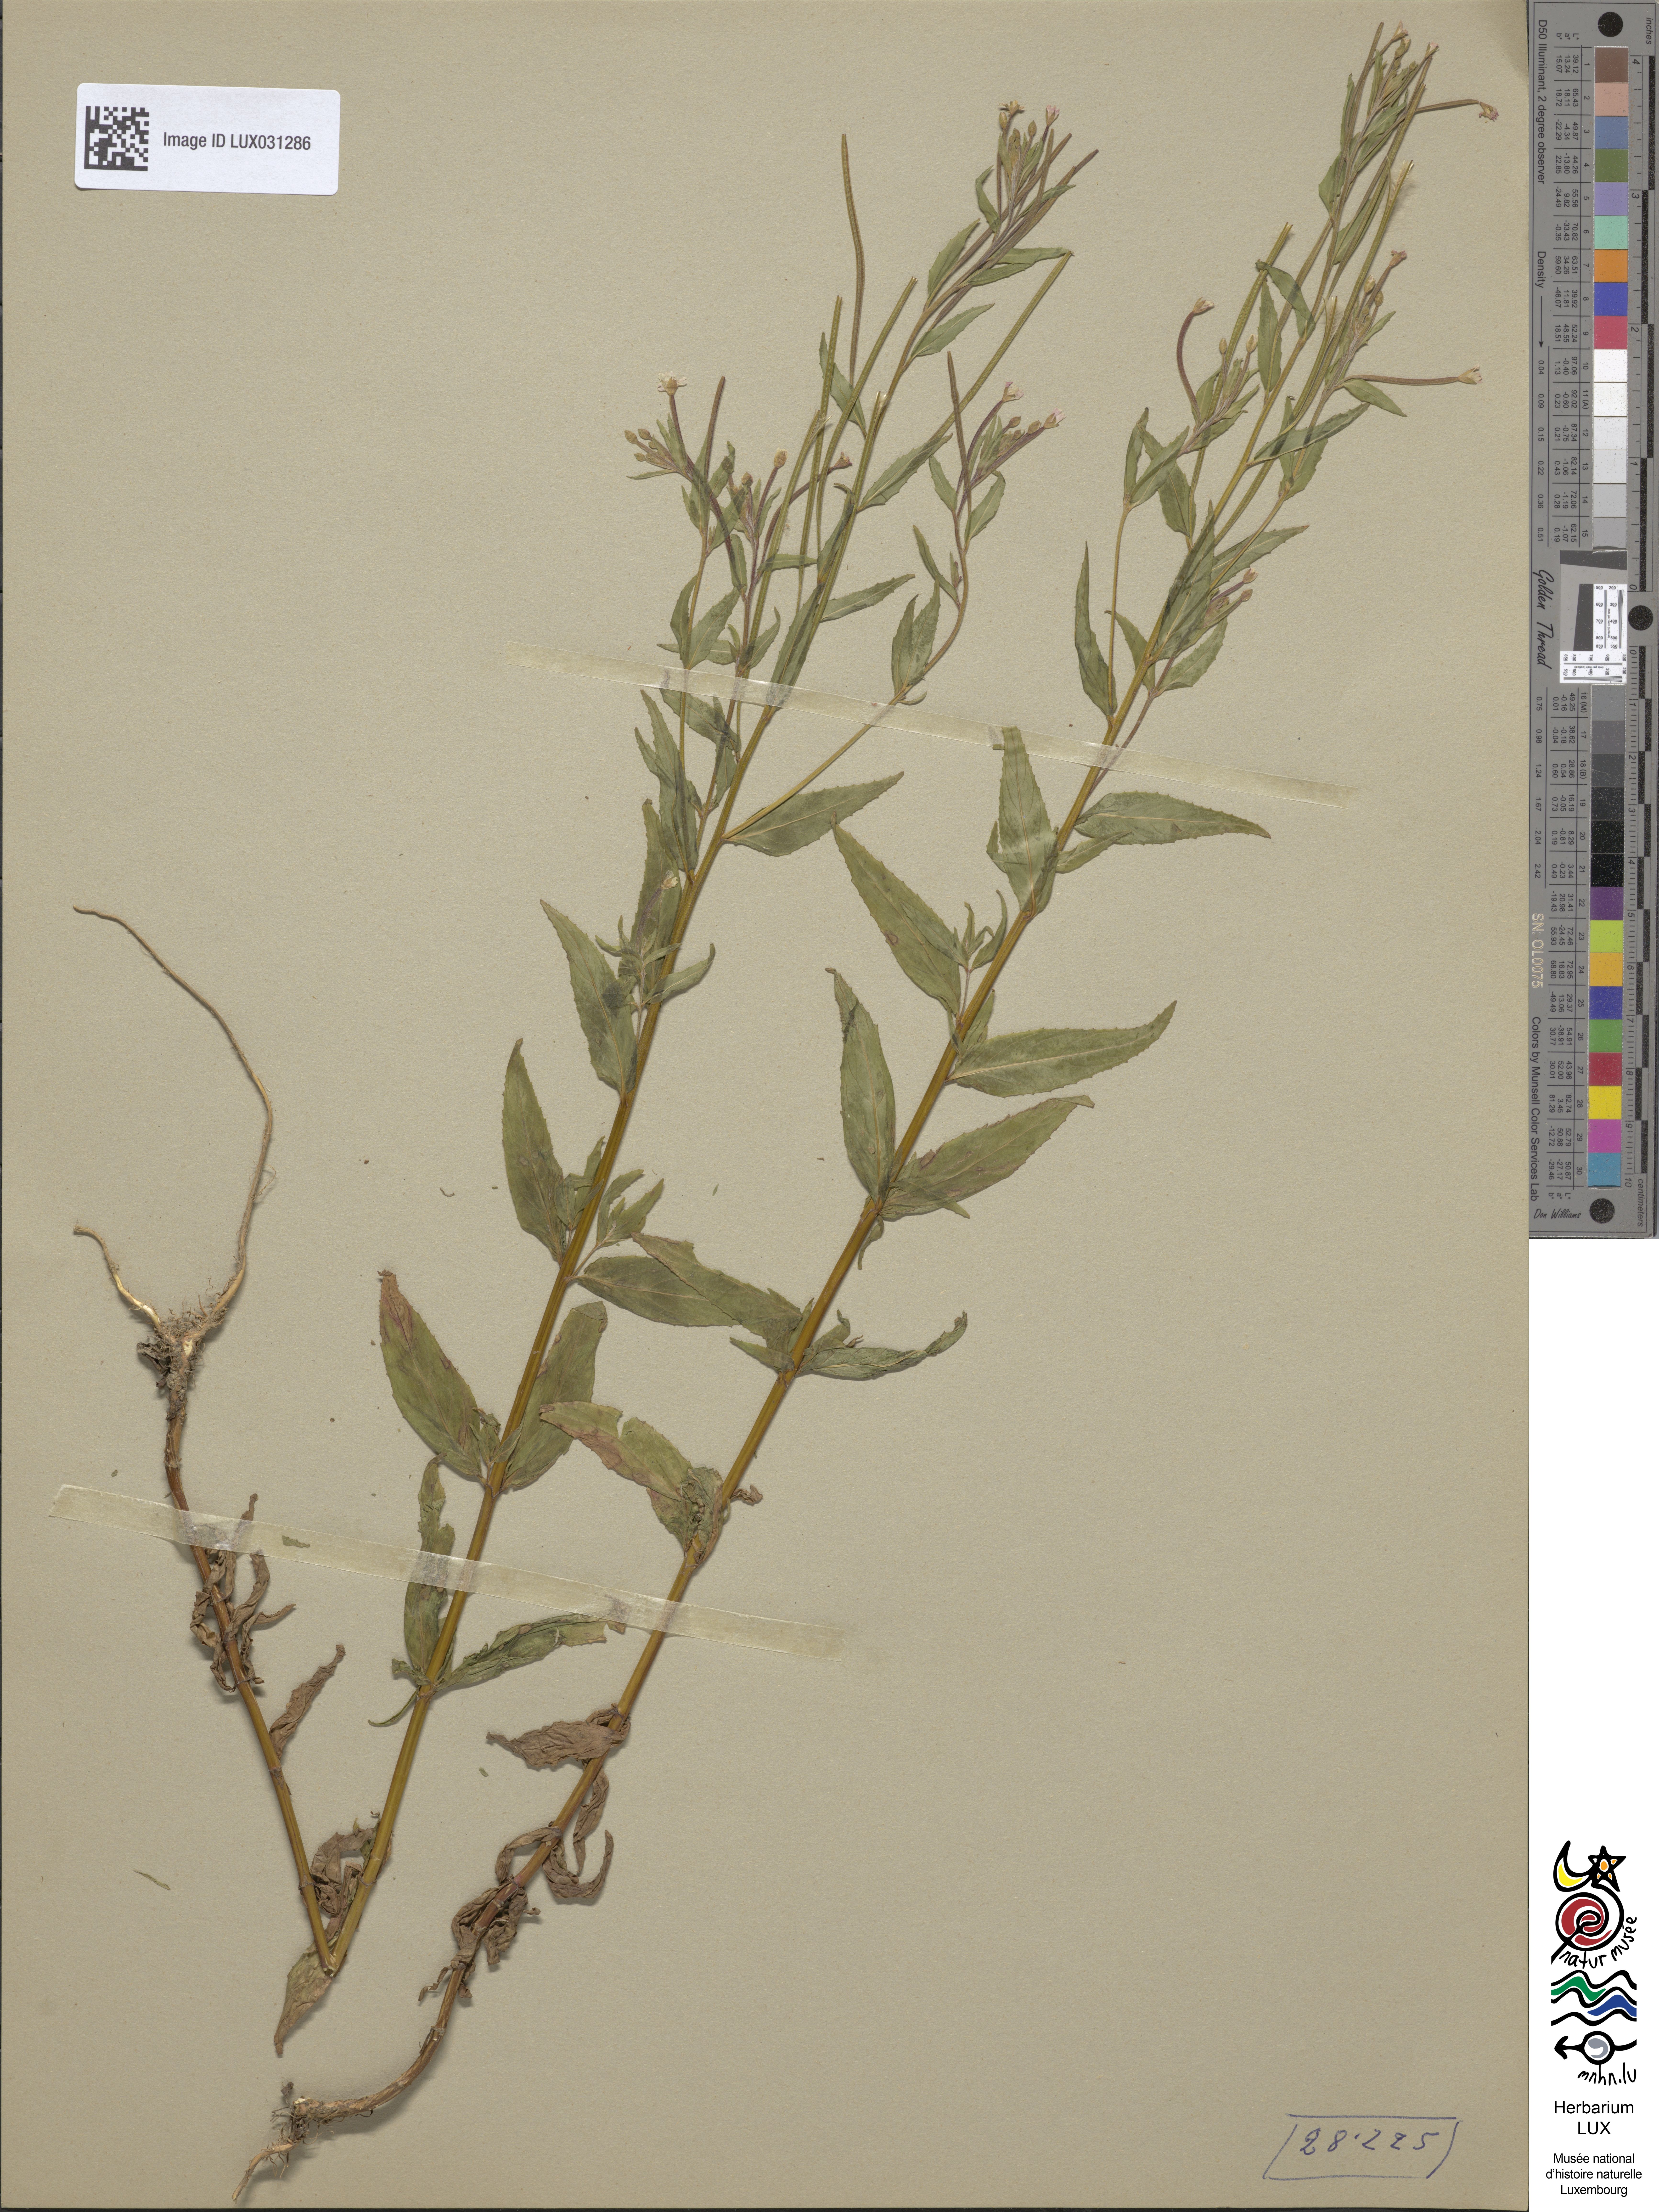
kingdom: Plantae
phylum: Tracheophyta
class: Magnoliopsida
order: Myrtales
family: Onagraceae
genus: Epilobium
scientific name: Epilobium ciliatum
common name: American willowherb
